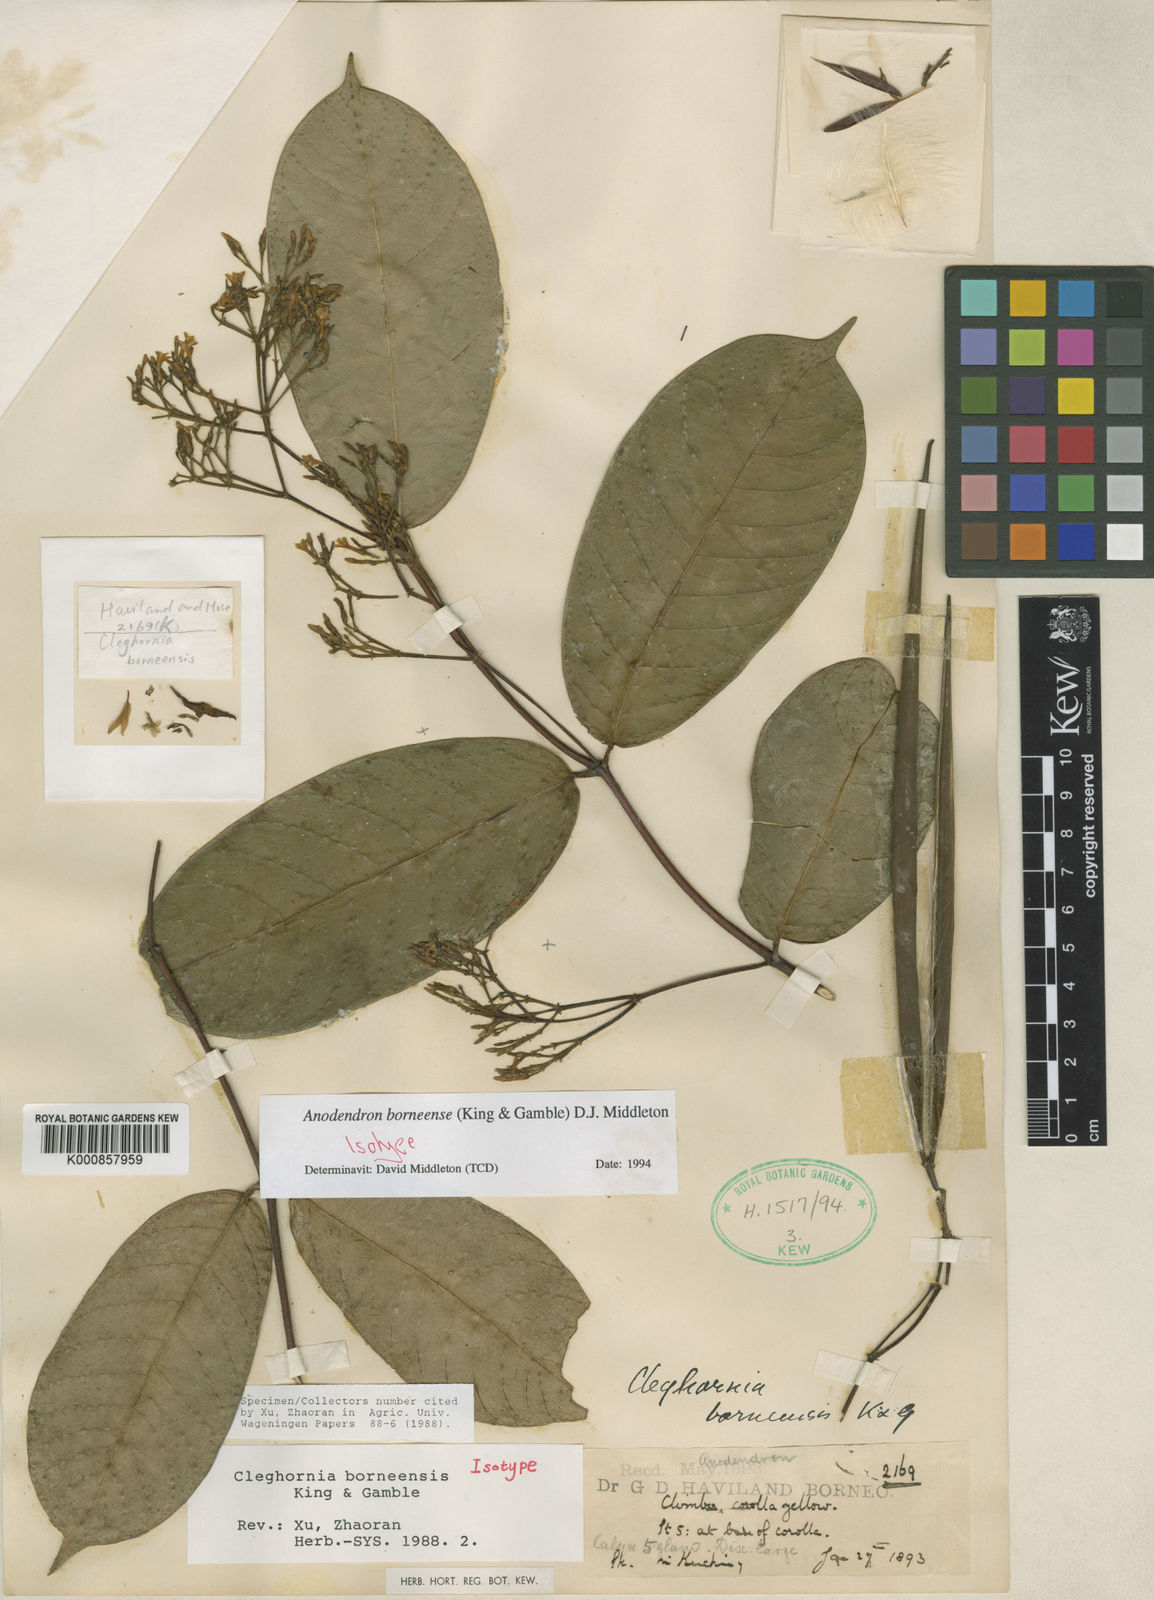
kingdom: Plantae
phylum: Tracheophyta
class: Magnoliopsida
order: Gentianales
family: Apocynaceae
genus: Anodendron
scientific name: Anodendron borneense
